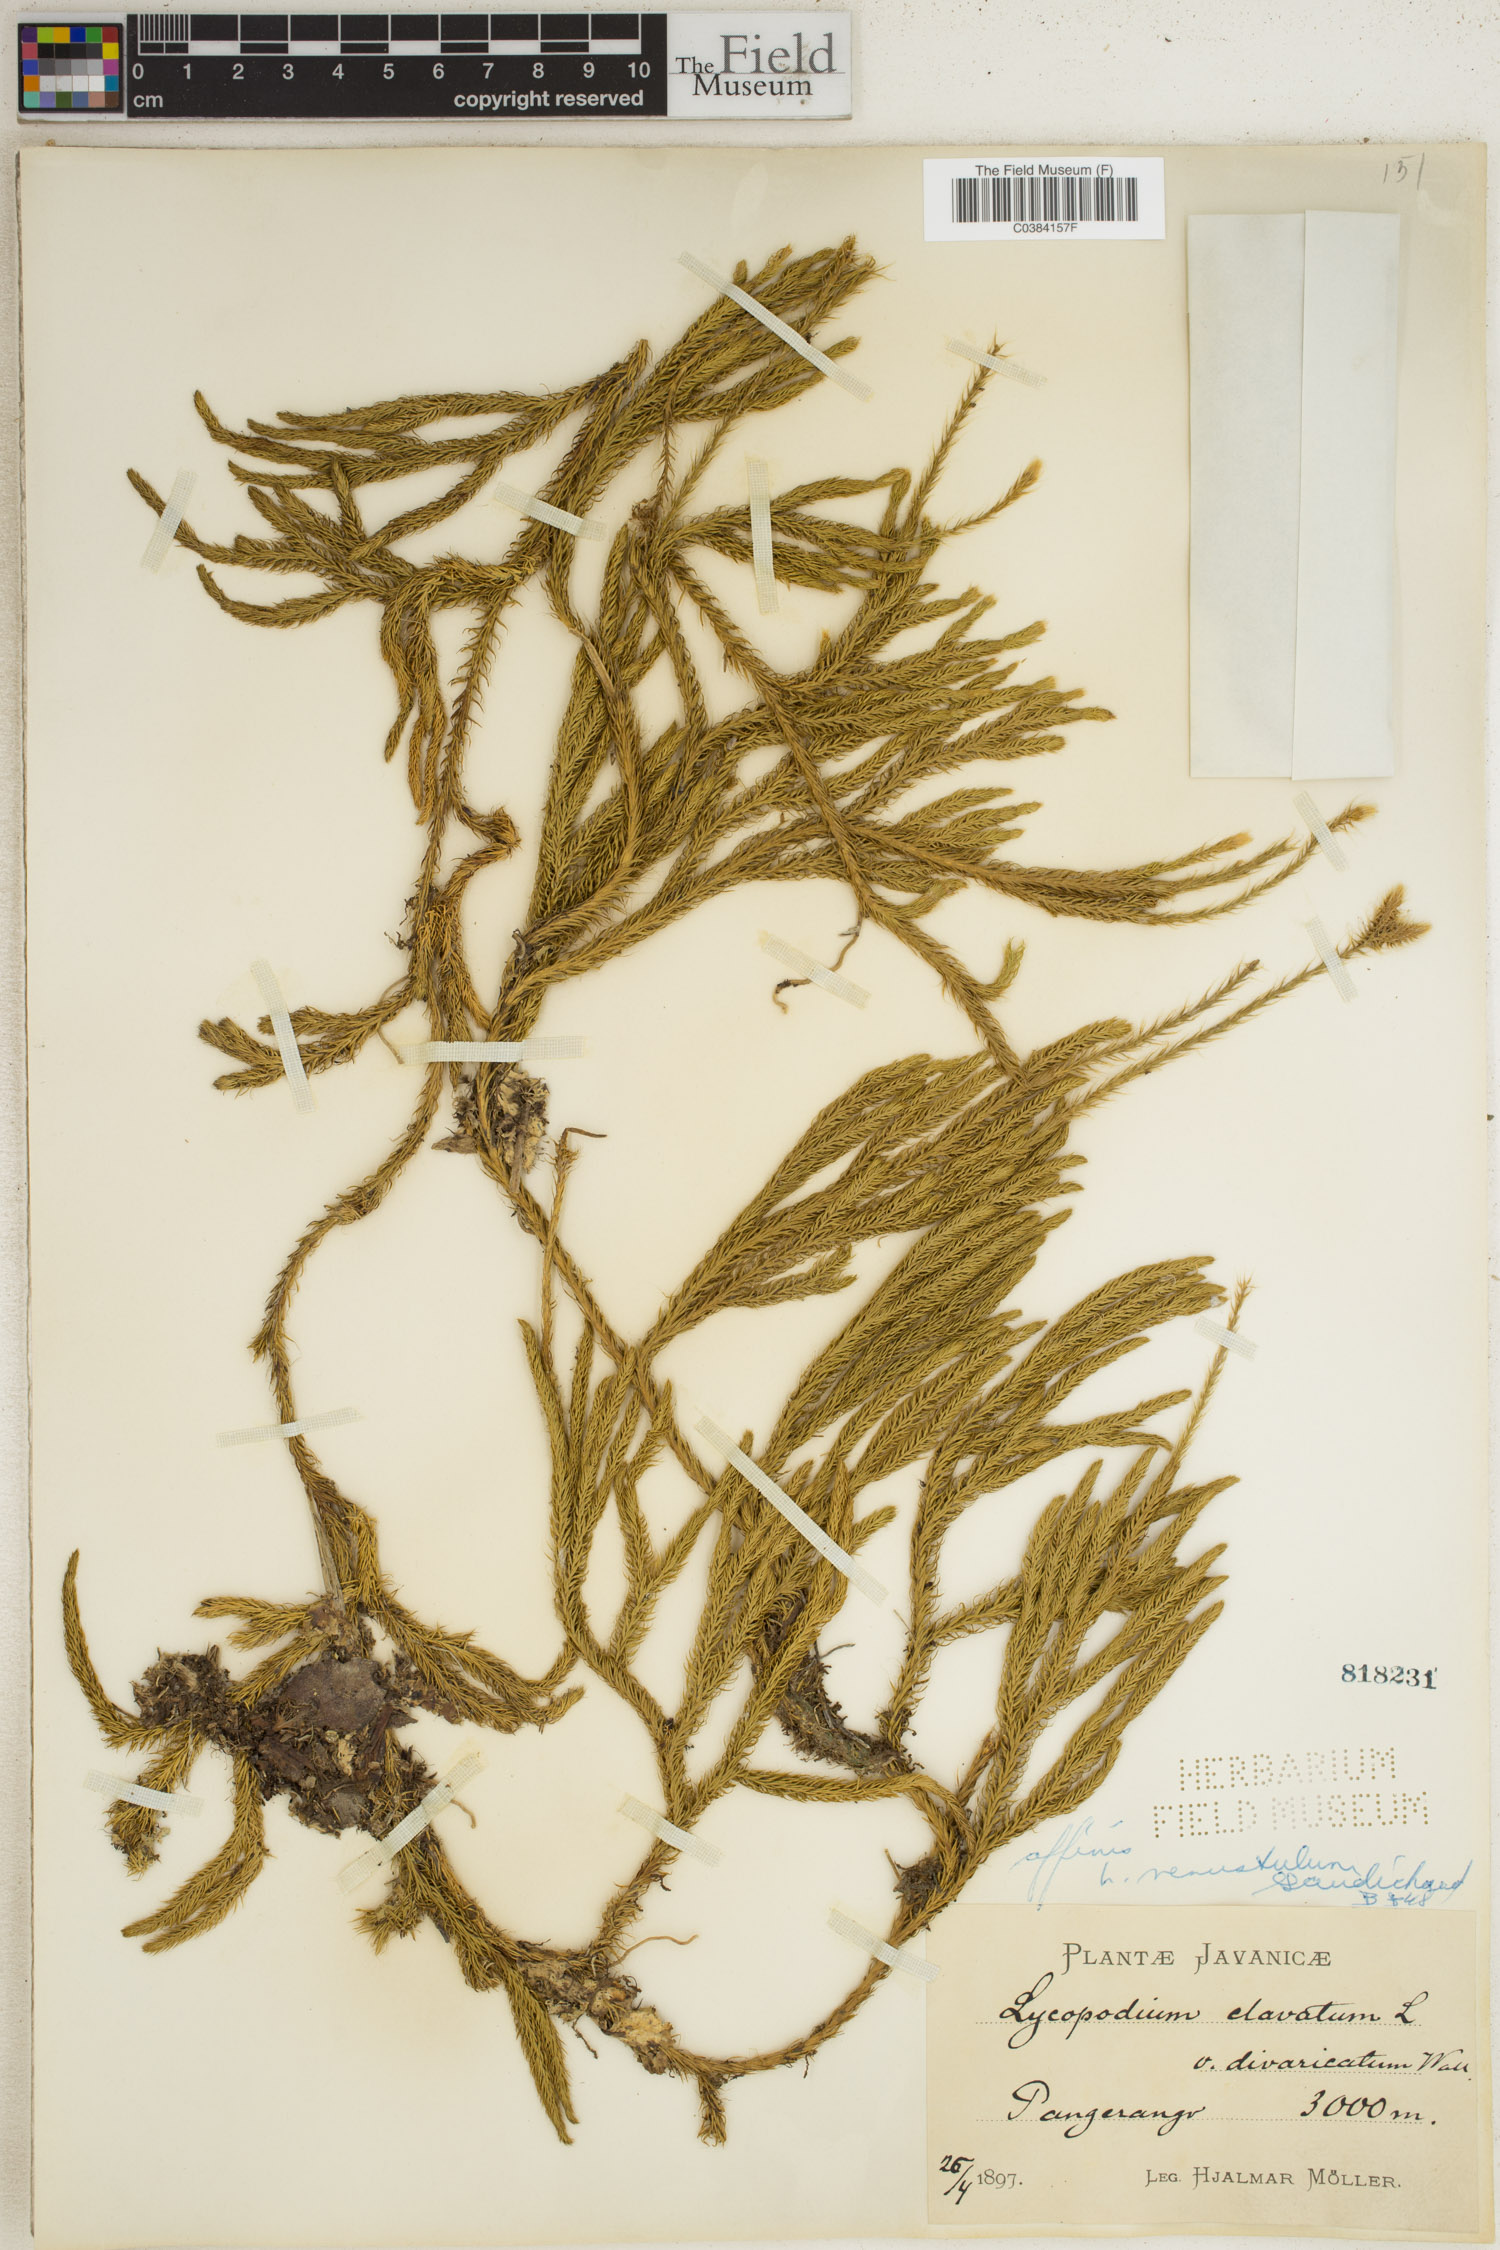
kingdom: Plantae
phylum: Tracheophyta
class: Lycopodiopsida
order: Lycopodiales
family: Lycopodiaceae
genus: Lycopodium
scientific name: Lycopodium clavatum
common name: Stag's-horn clubmoss
